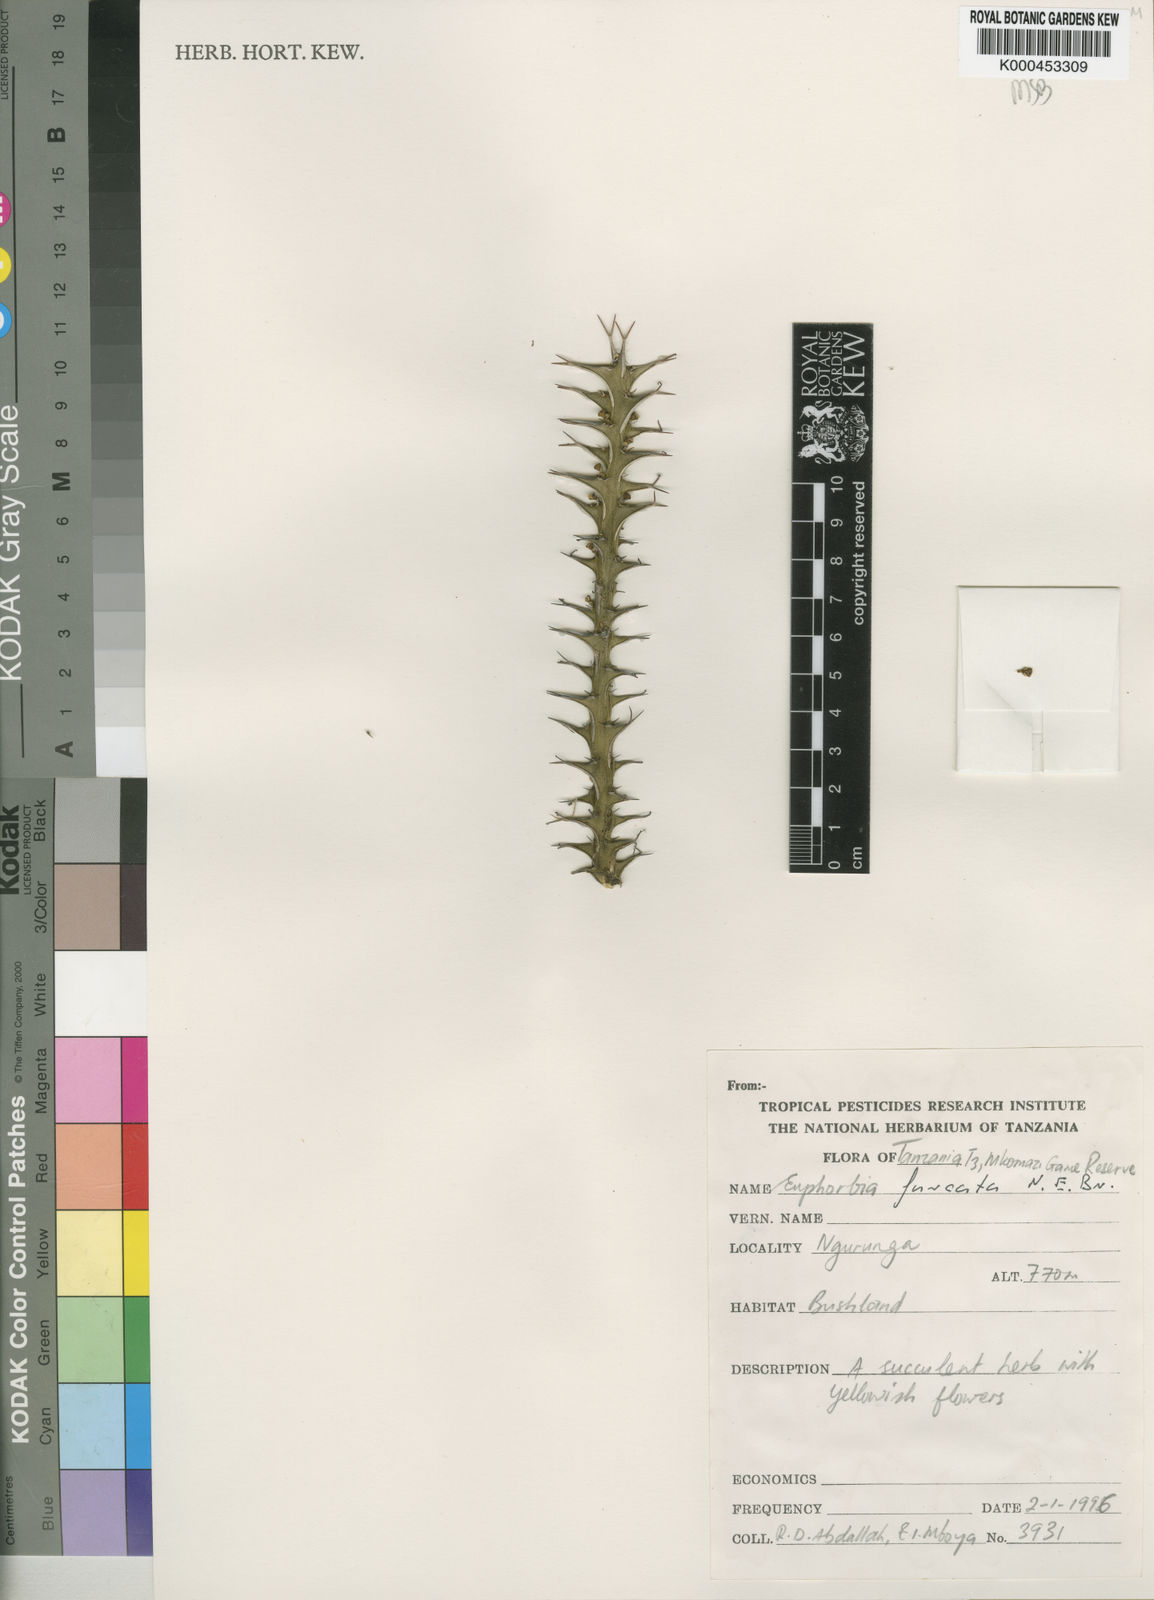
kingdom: Plantae
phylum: Tracheophyta
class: Magnoliopsida
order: Malpighiales
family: Euphorbiaceae
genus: Euphorbia
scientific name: Euphorbia furcata
